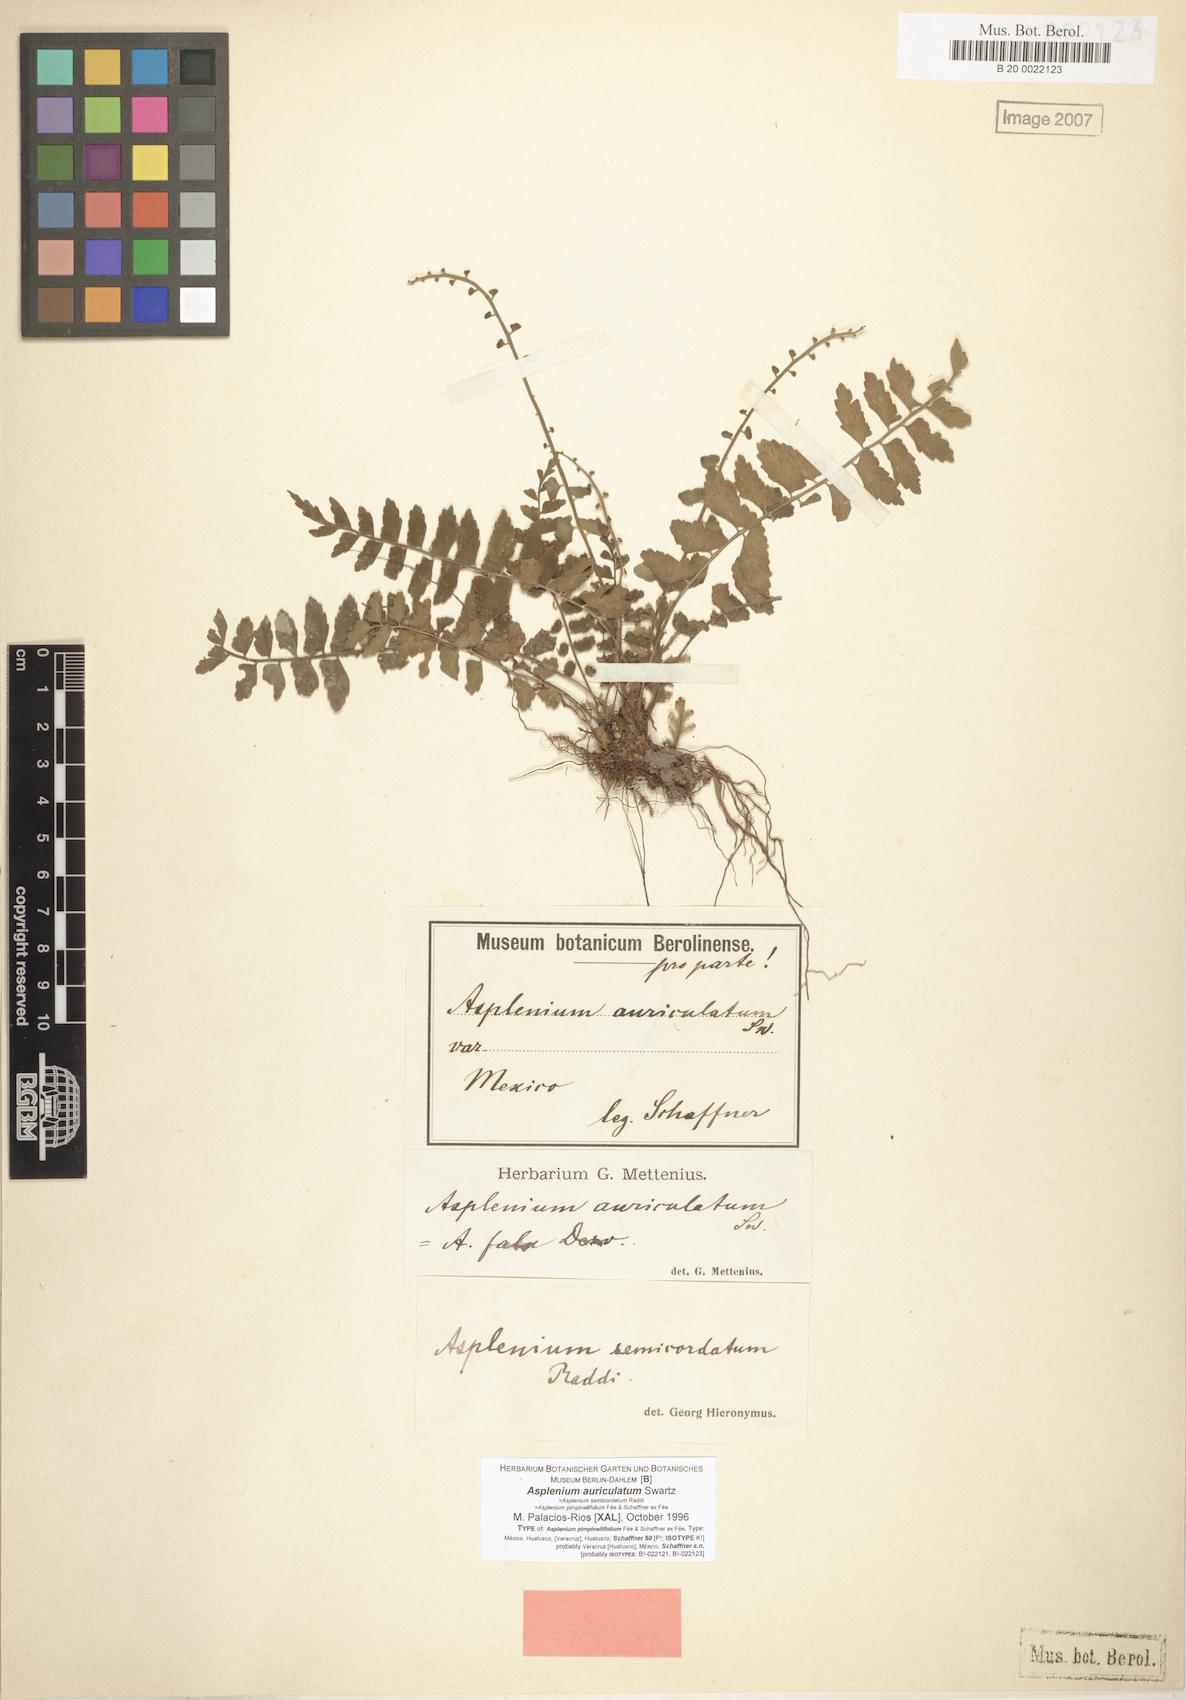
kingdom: Plantae
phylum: Tracheophyta
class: Polypodiopsida
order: Polypodiales
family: Aspleniaceae
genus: Asplenium
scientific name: Asplenium auriculatum
